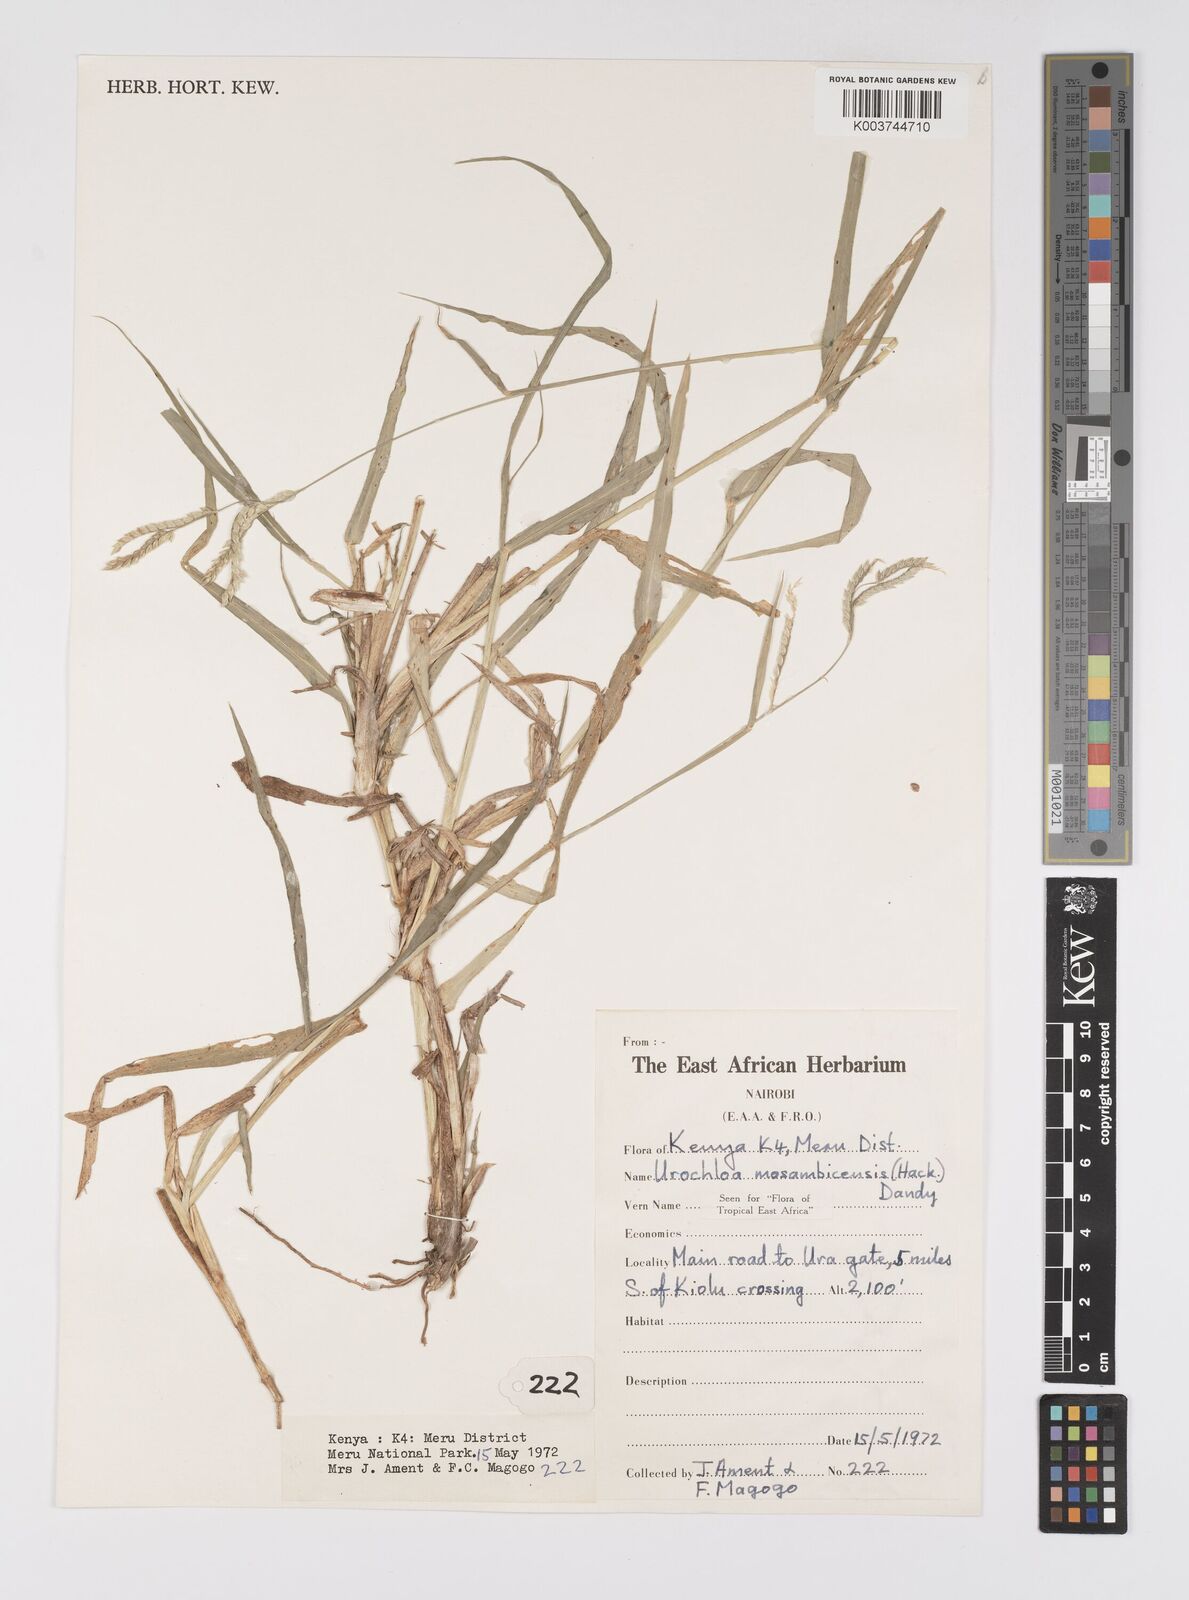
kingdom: Plantae
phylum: Tracheophyta
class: Liliopsida
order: Poales
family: Poaceae
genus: Urochloa
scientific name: Urochloa trichopus
